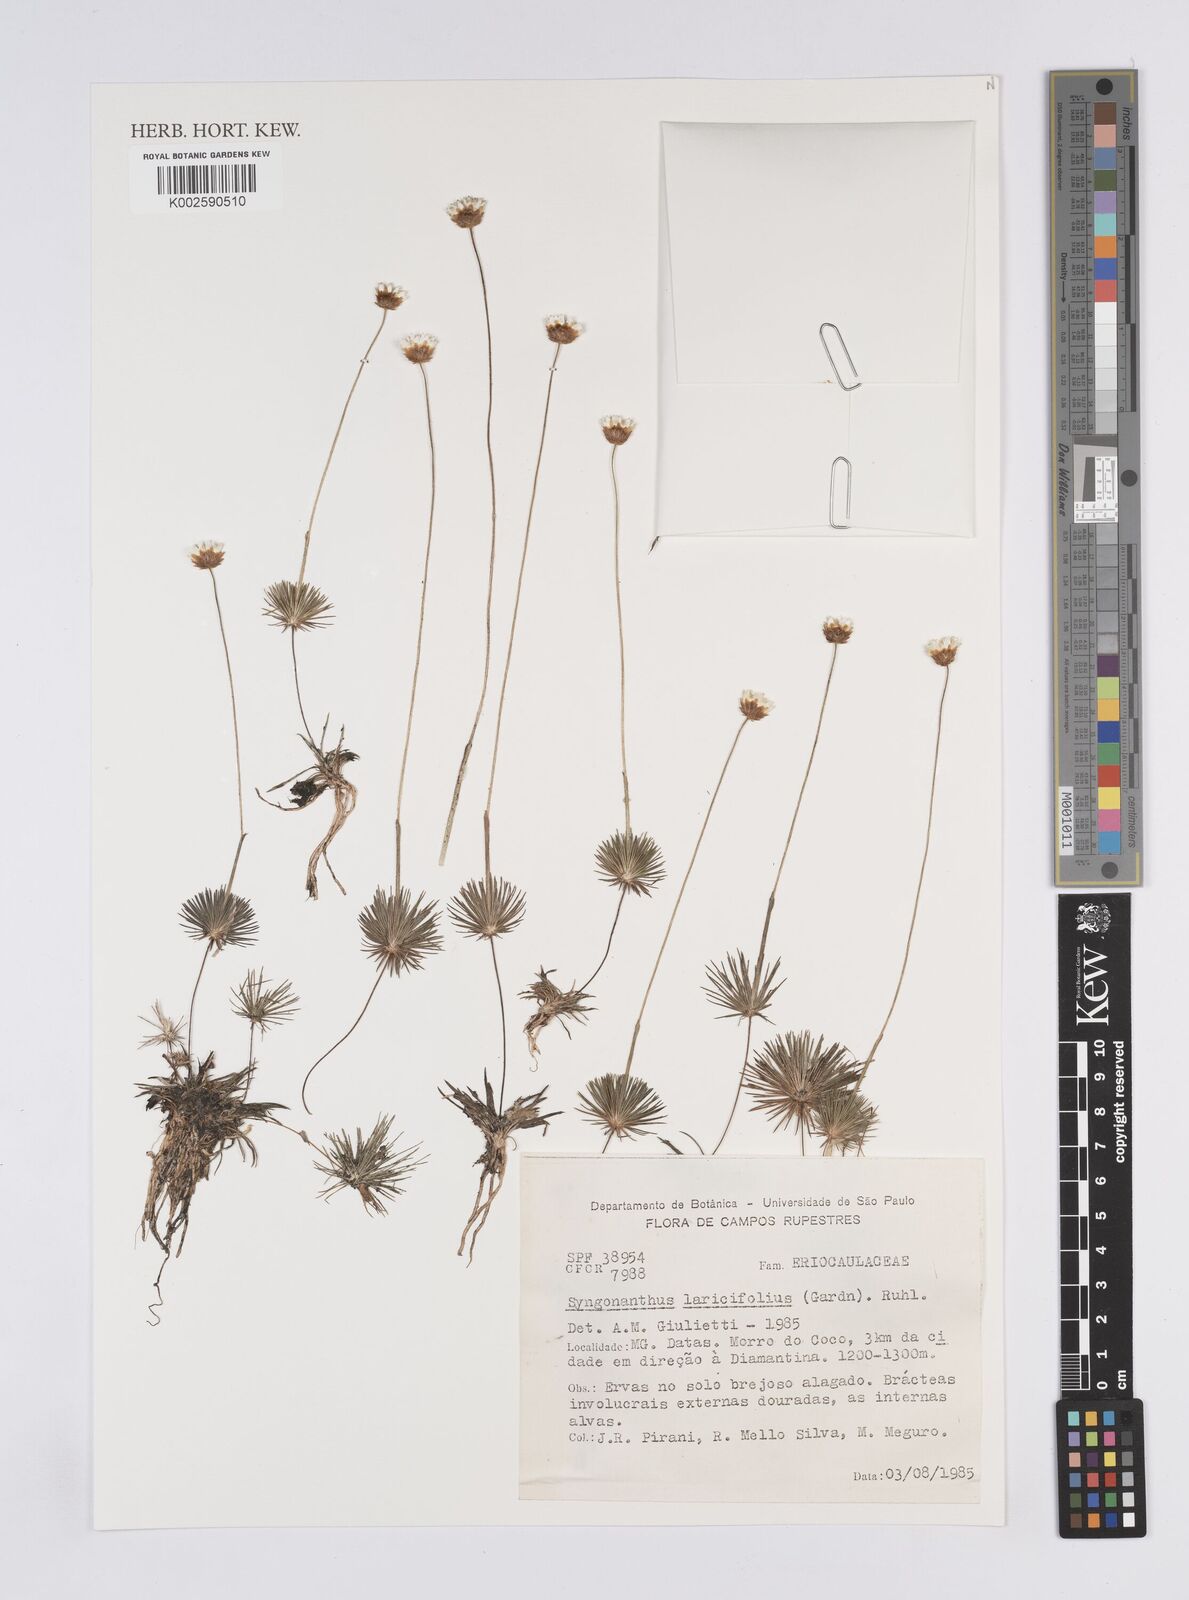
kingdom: Plantae
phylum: Tracheophyta
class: Liliopsida
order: Poales
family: Eriocaulaceae
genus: Syngonanthus
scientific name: Syngonanthus laricifolius
